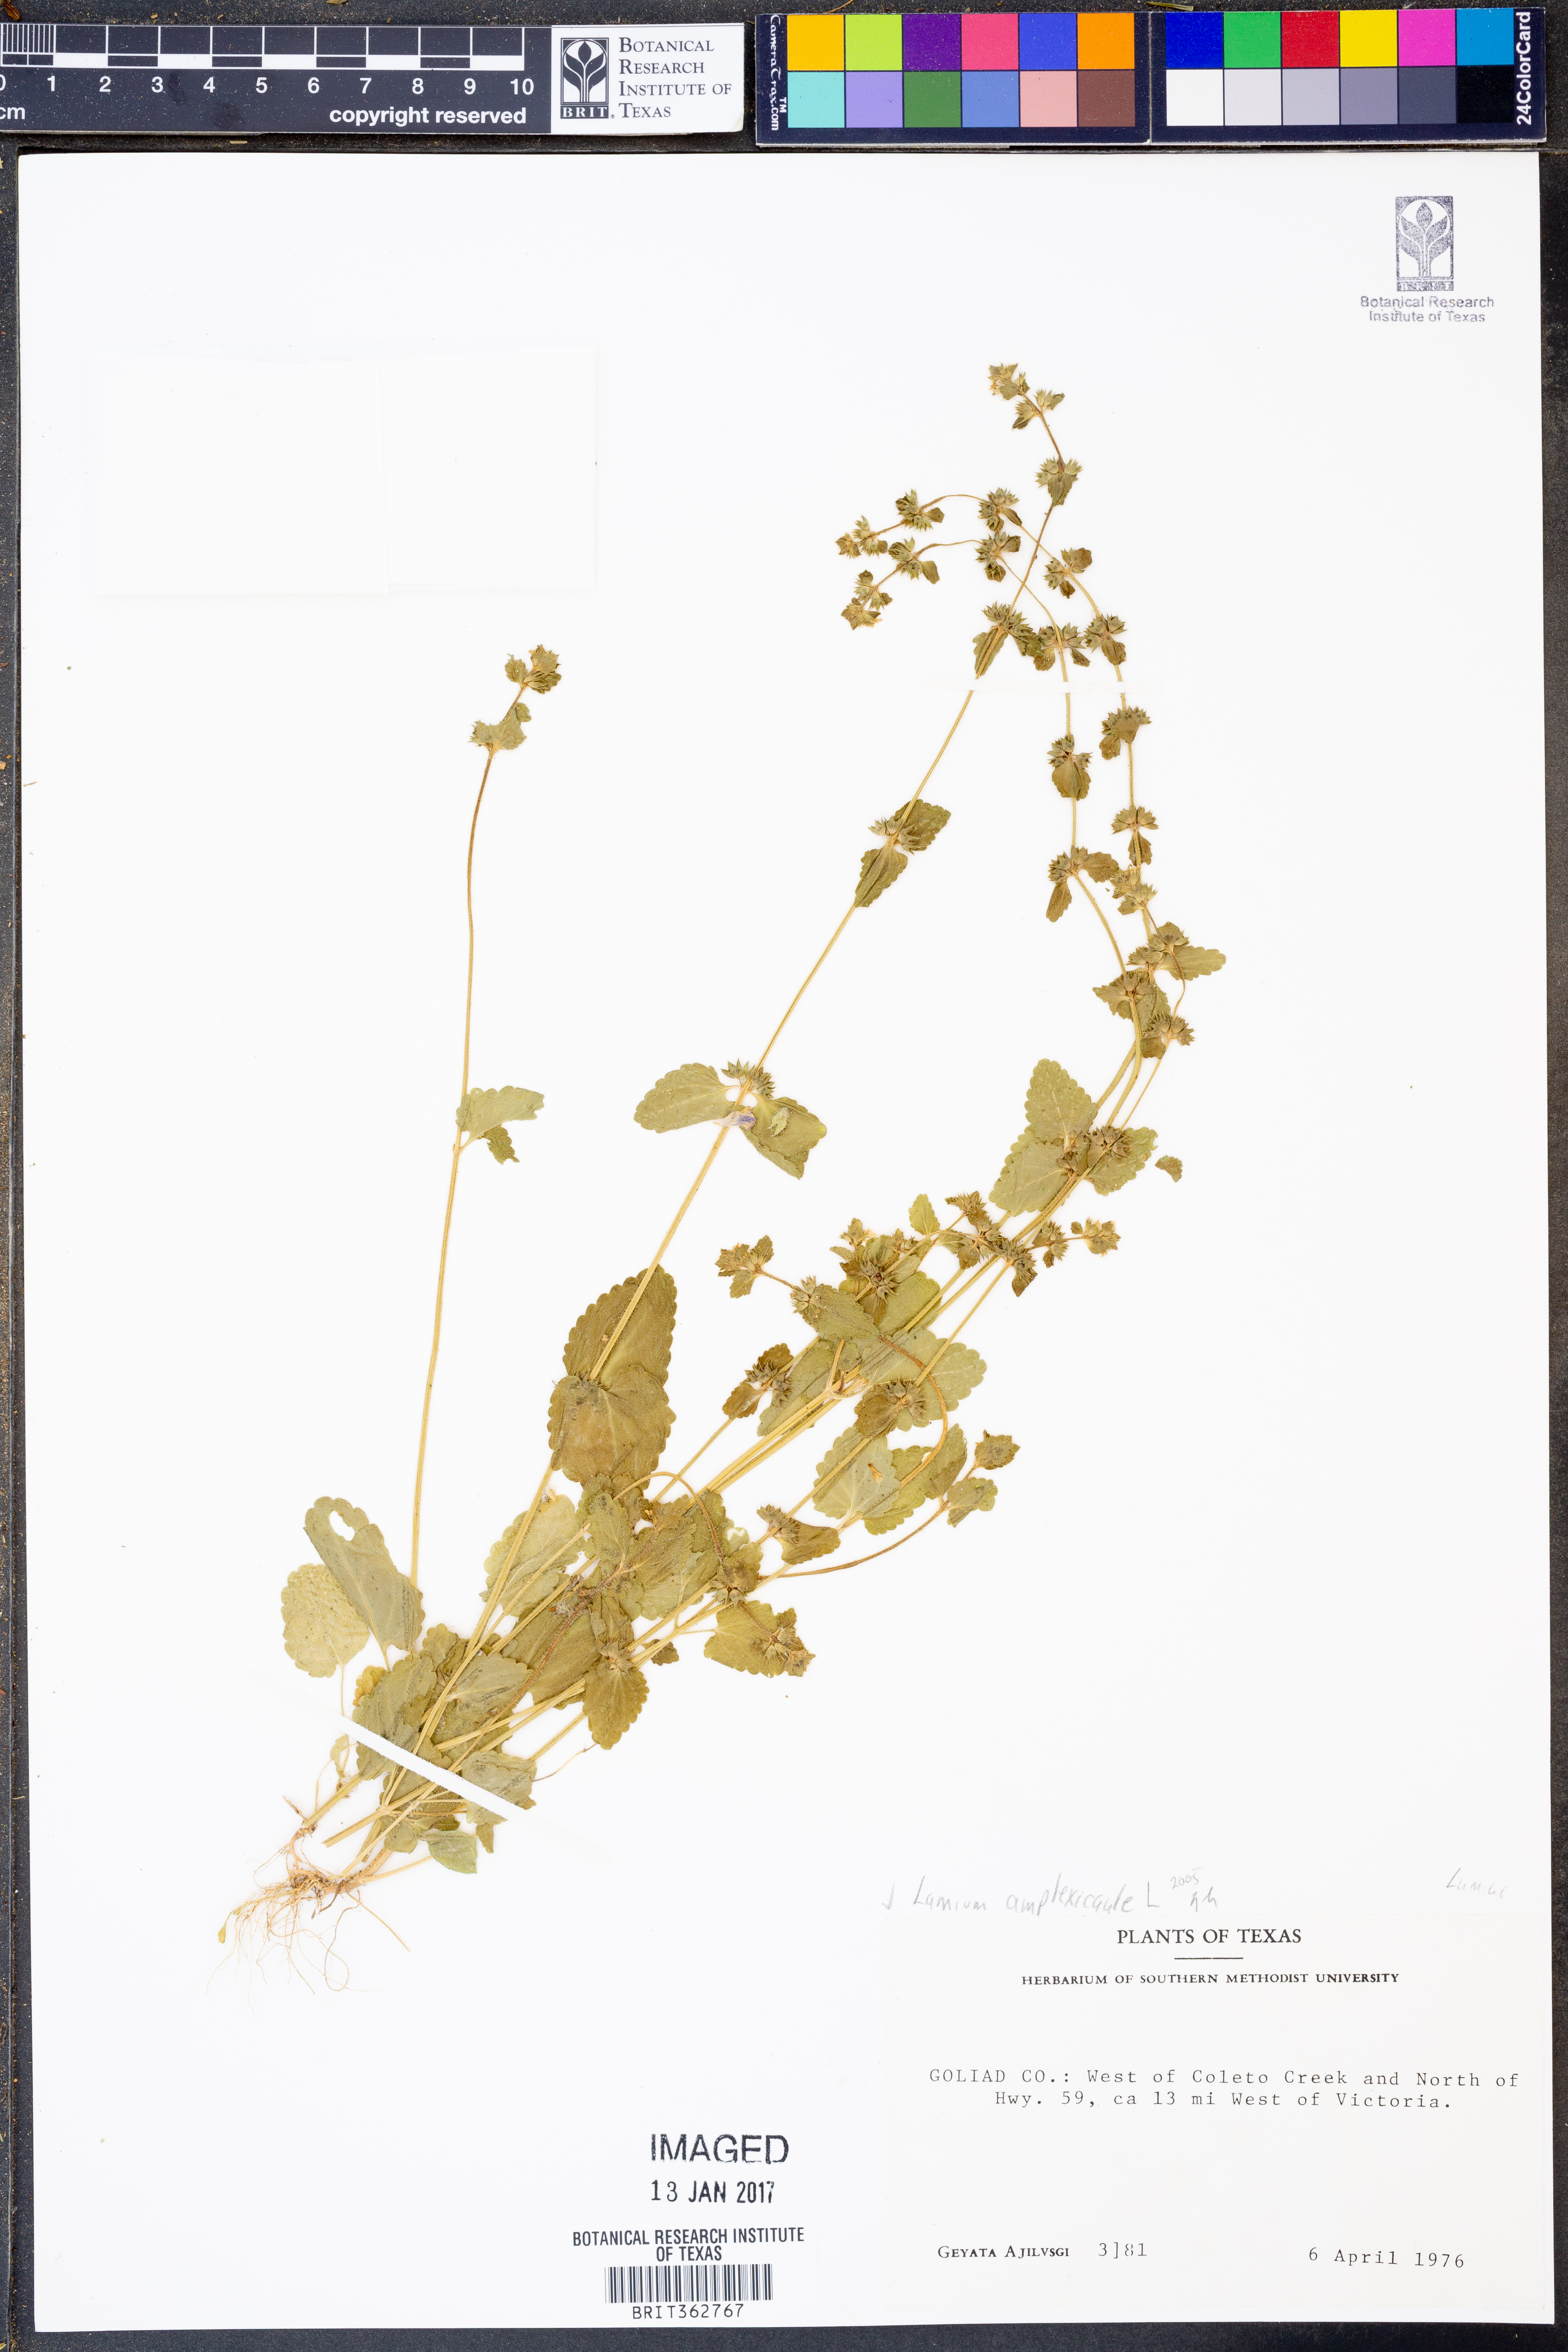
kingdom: Plantae
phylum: Tracheophyta
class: Magnoliopsida
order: Lamiales
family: Lamiaceae
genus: Lamium
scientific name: Lamium amplexicaule
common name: Henbit dead-nettle
